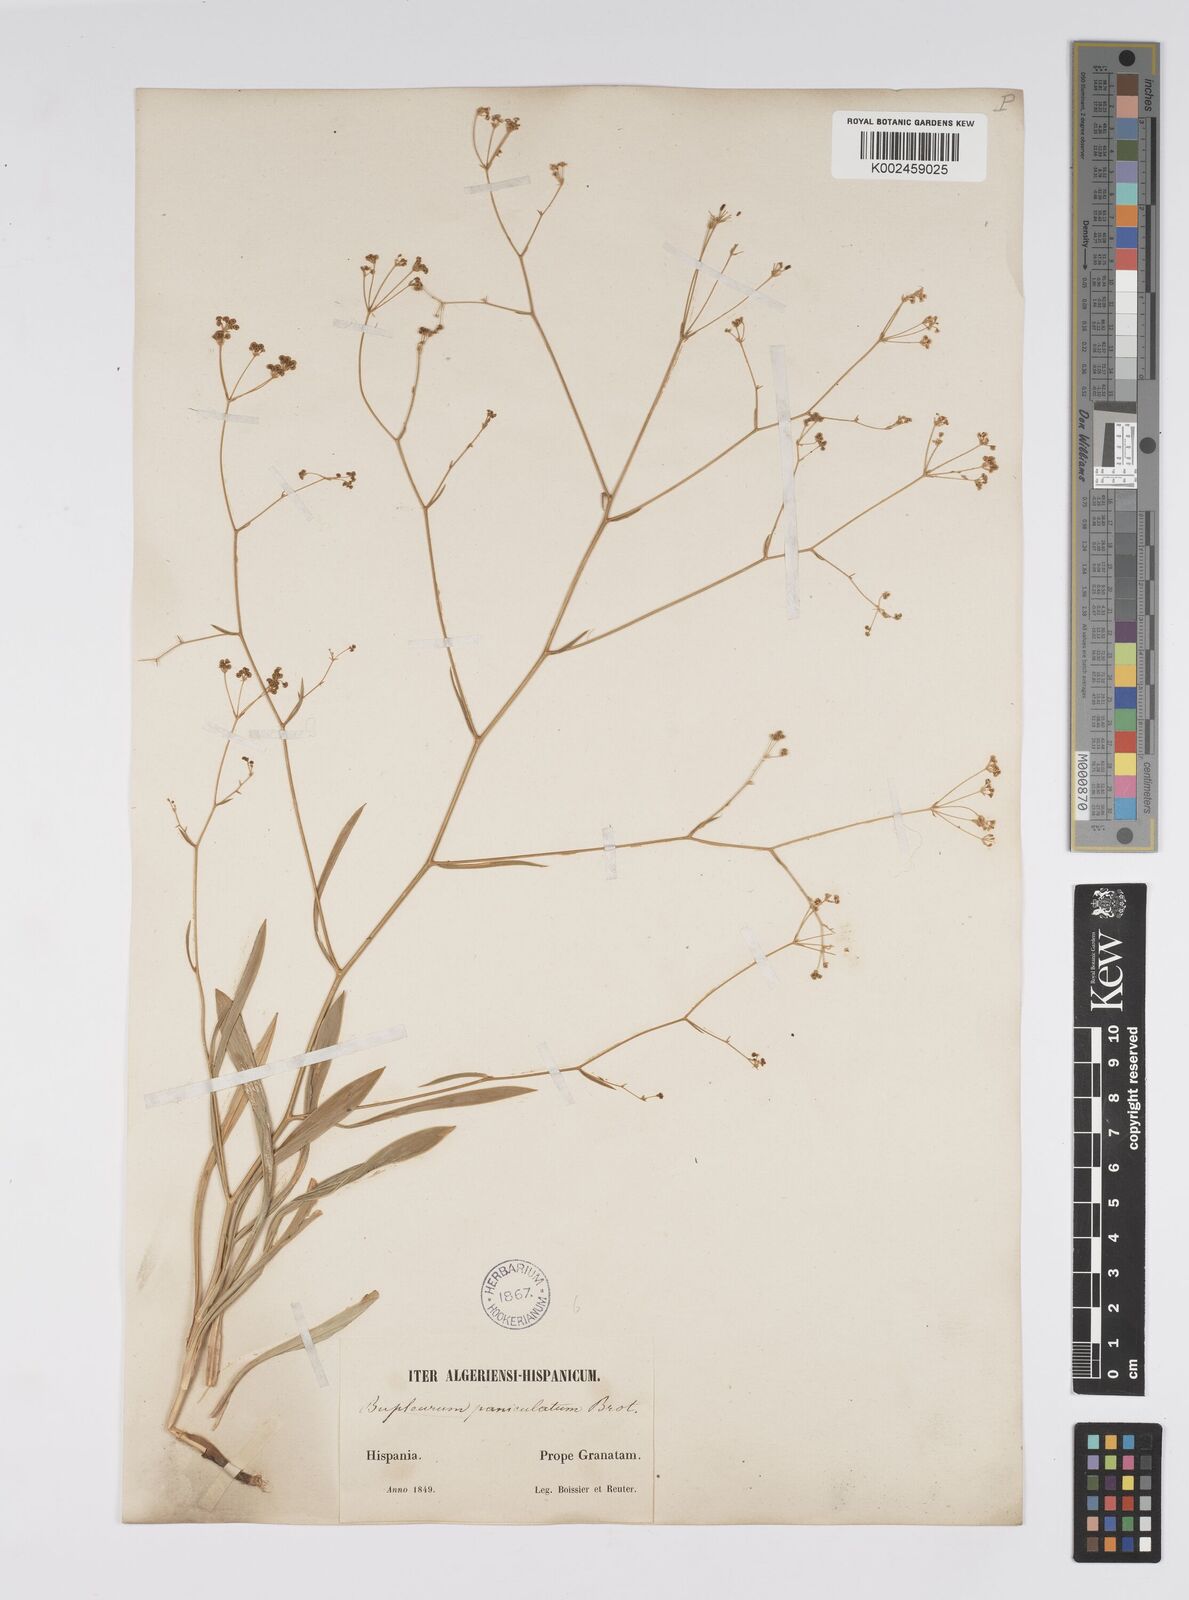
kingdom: Plantae
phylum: Tracheophyta
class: Magnoliopsida
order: Apiales
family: Apiaceae
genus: Bupleurum
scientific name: Bupleurum rigidum
